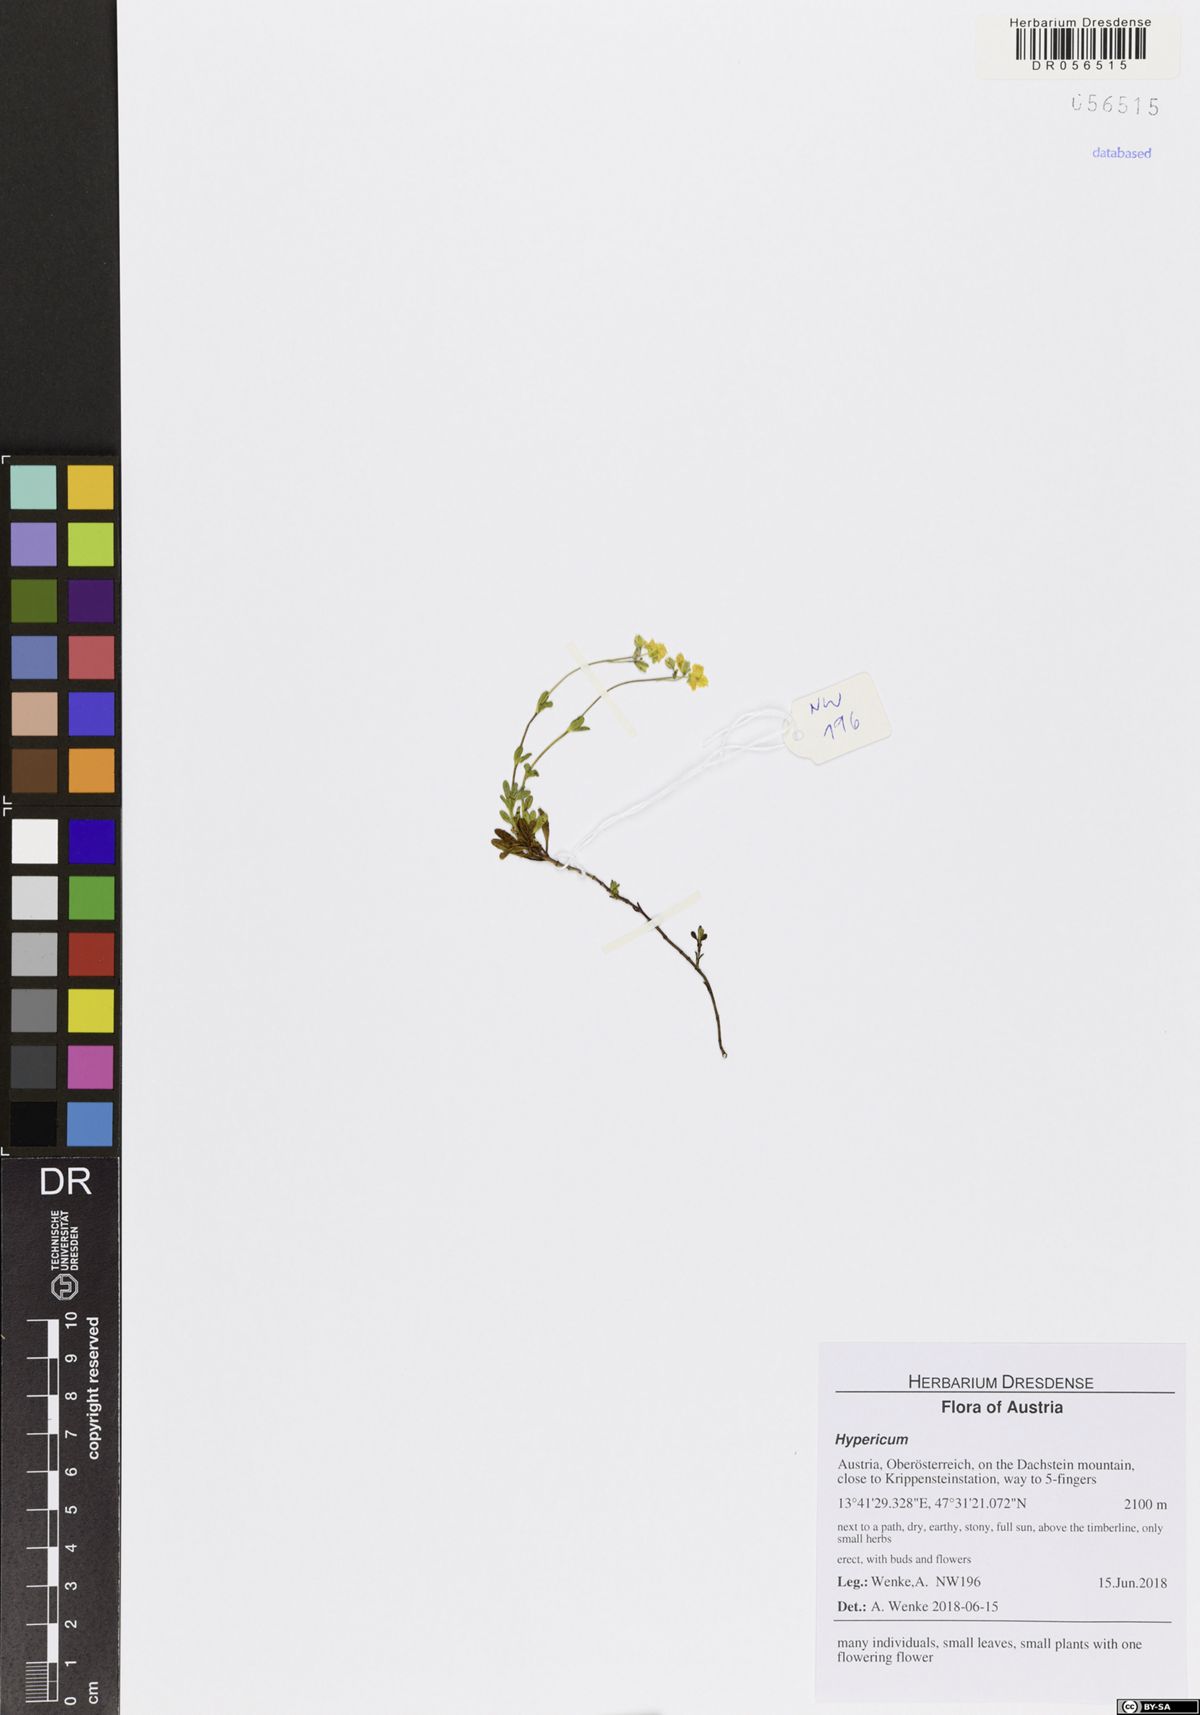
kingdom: Plantae
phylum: Tracheophyta
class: Magnoliopsida
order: Malpighiales
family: Hypericaceae
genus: Hypericum
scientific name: Hypericum
